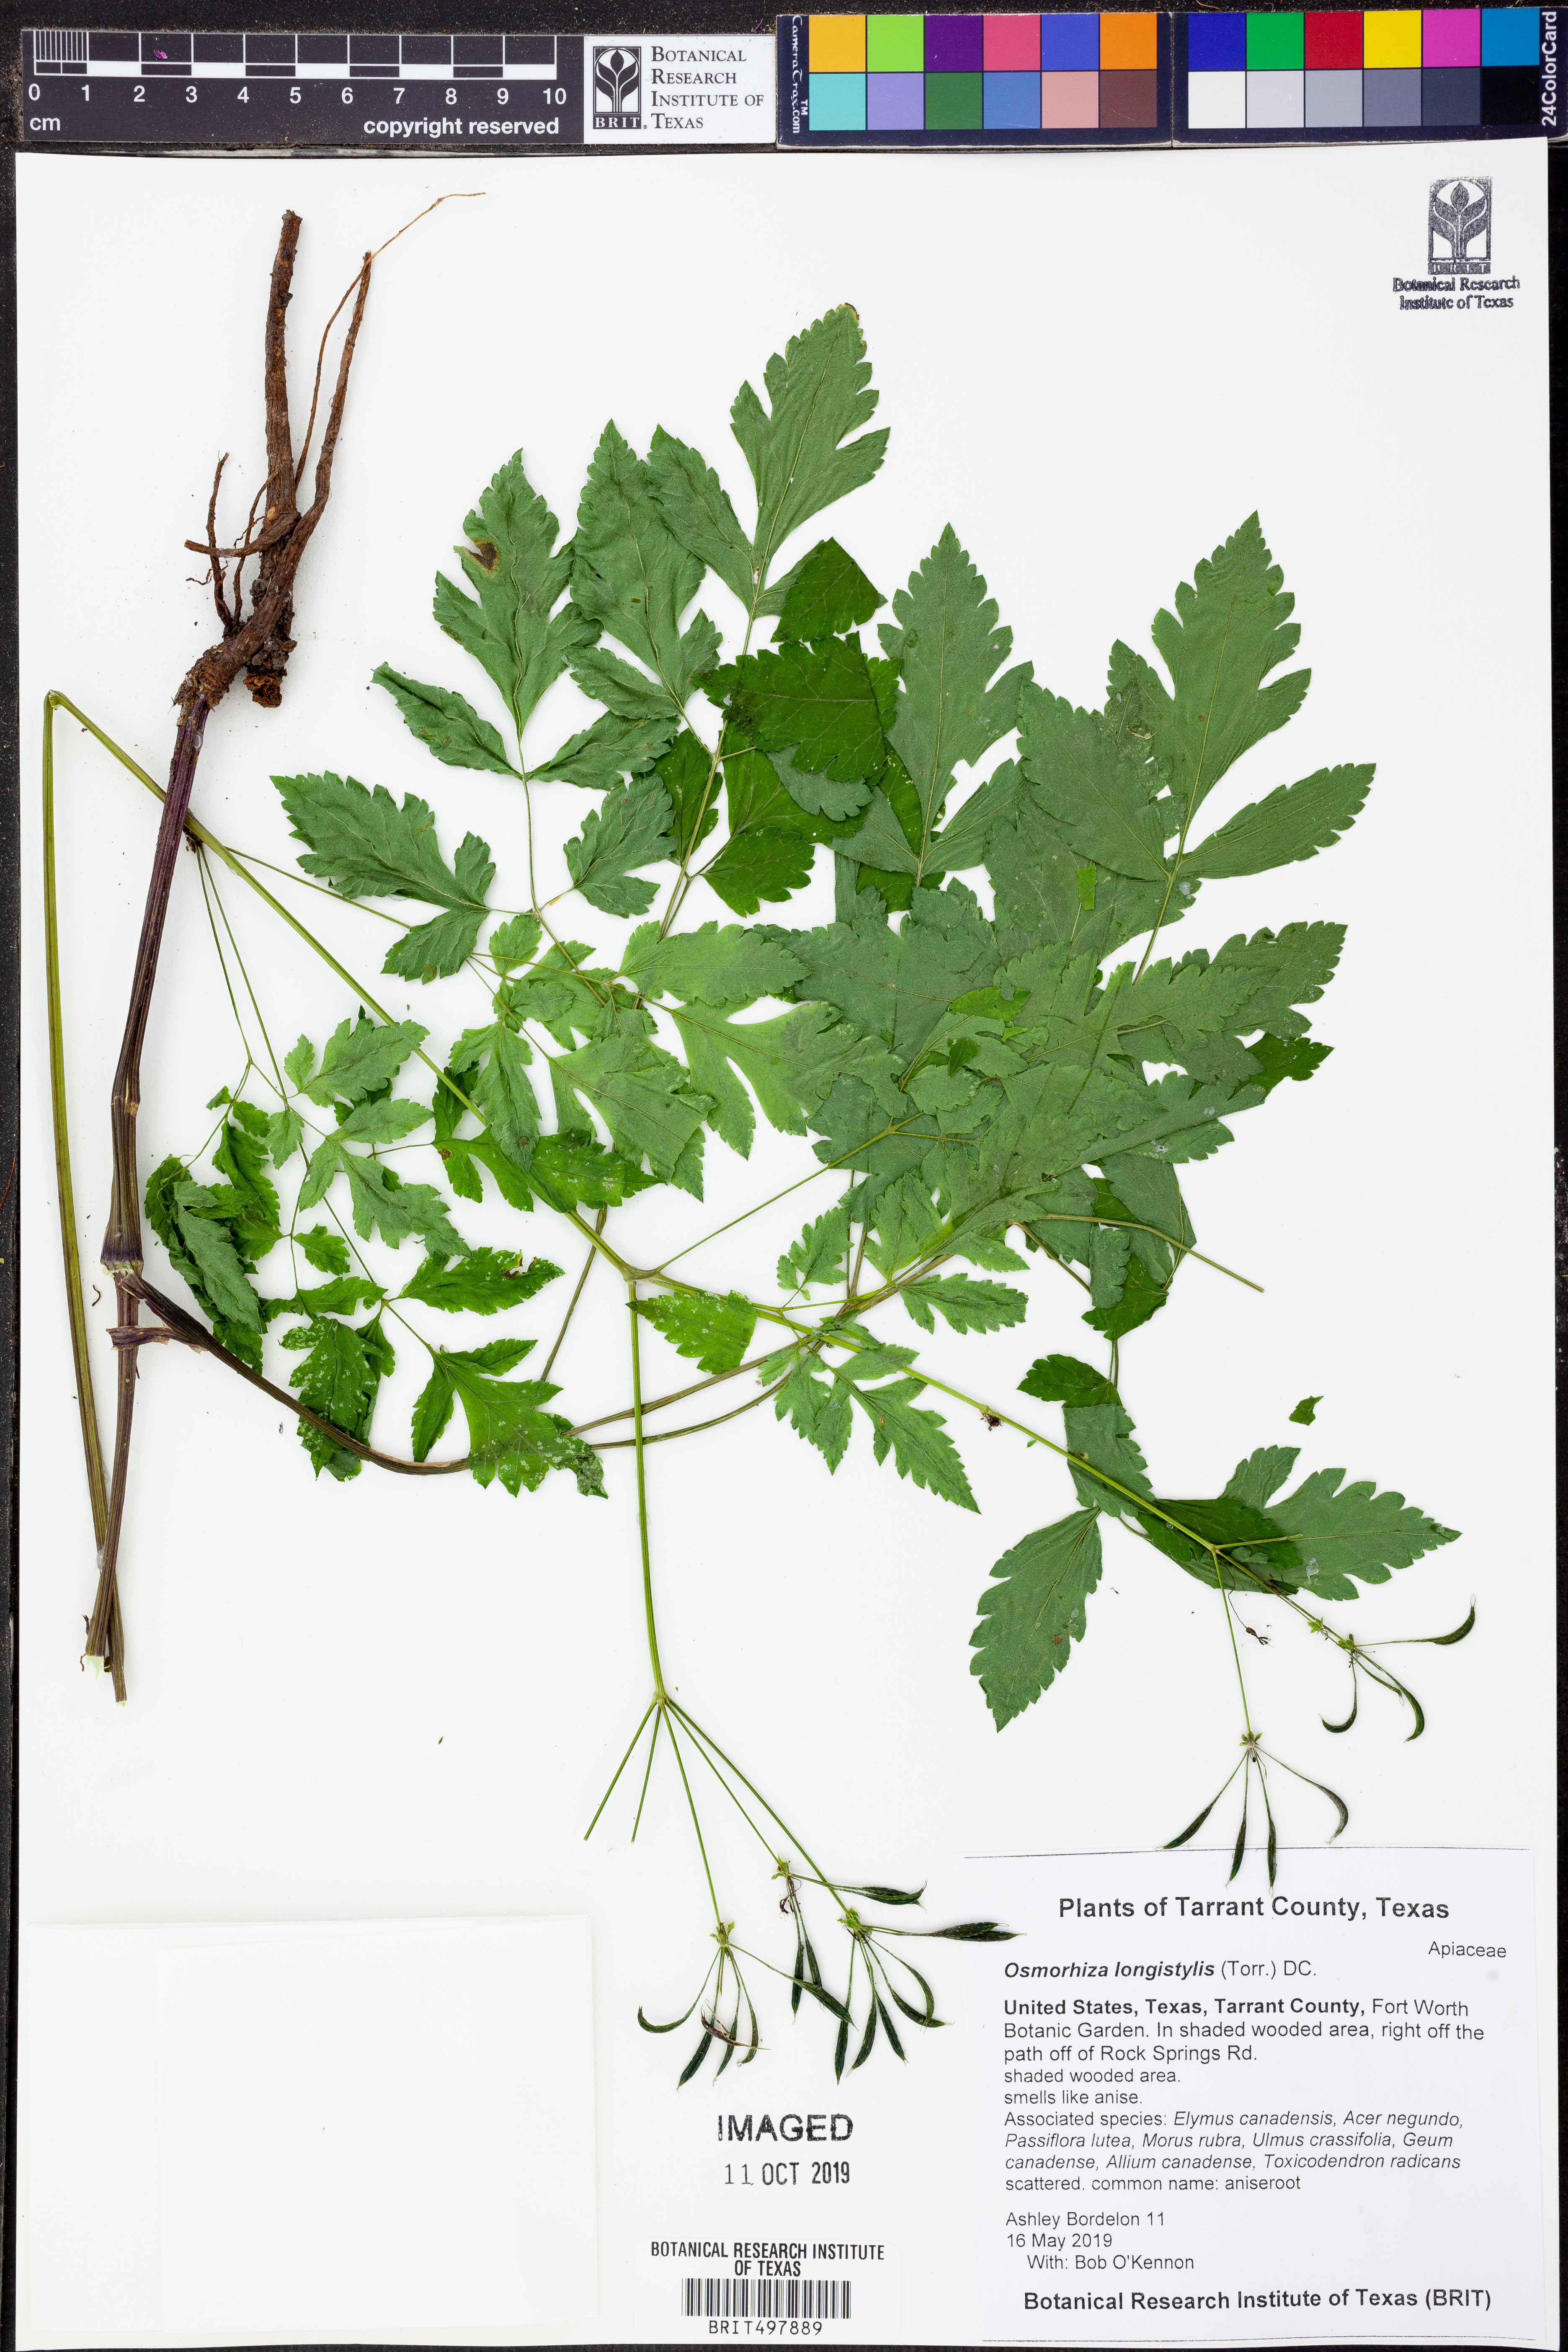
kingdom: Plantae
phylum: Tracheophyta
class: Magnoliopsida
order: Apiales
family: Apiaceae
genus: Osmorhiza
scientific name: Osmorhiza longistylis
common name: Smooth sweet cicely
